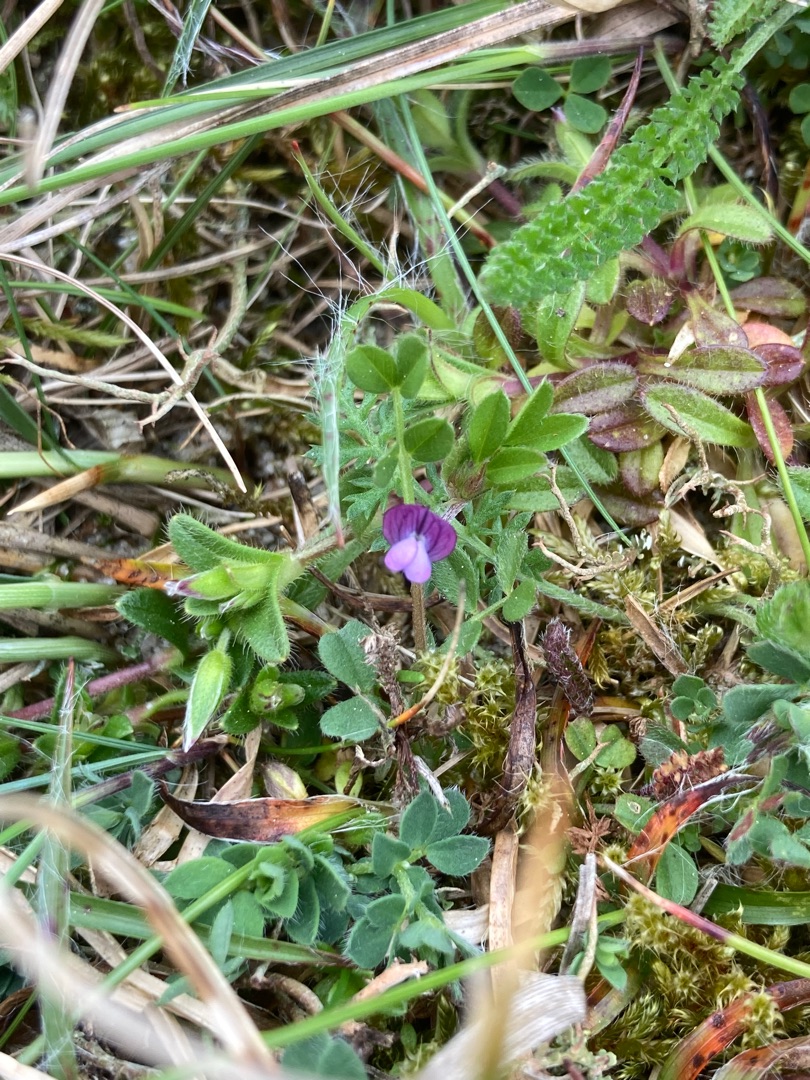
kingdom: Plantae
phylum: Tracheophyta
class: Magnoliopsida
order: Fabales
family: Fabaceae
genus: Vicia
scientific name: Vicia lathyroides
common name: Vår-vikke
